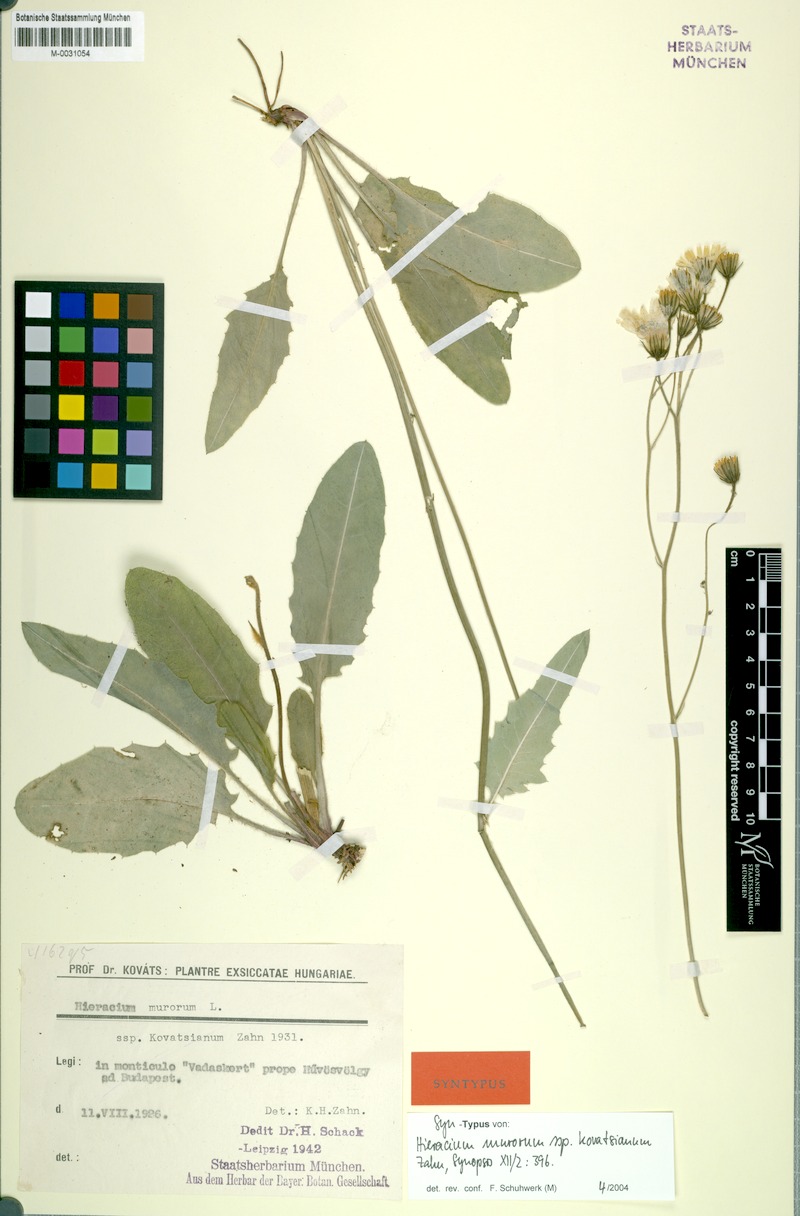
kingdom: Plantae
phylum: Tracheophyta
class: Magnoliopsida
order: Asterales
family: Asteraceae
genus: Hieracium
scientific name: Hieracium murorum
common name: Wall hawkweed
